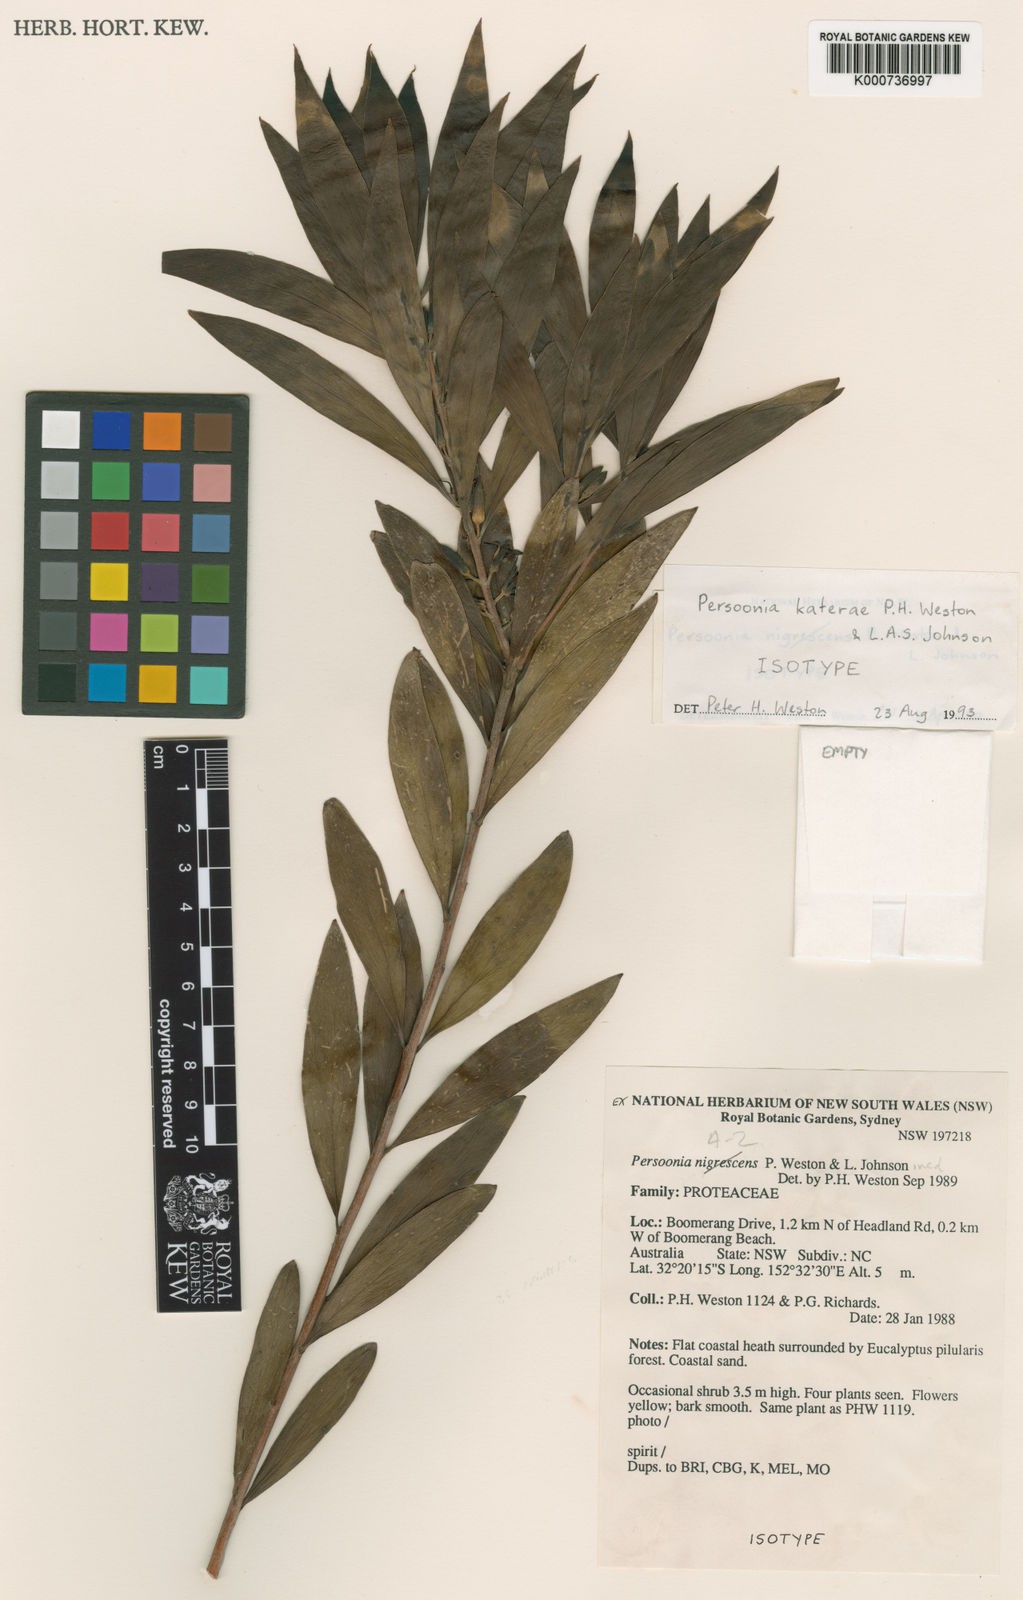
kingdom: Plantae
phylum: Tracheophyta
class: Magnoliopsida
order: Proteales
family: Proteaceae
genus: Persoonia
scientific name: Persoonia katerae
